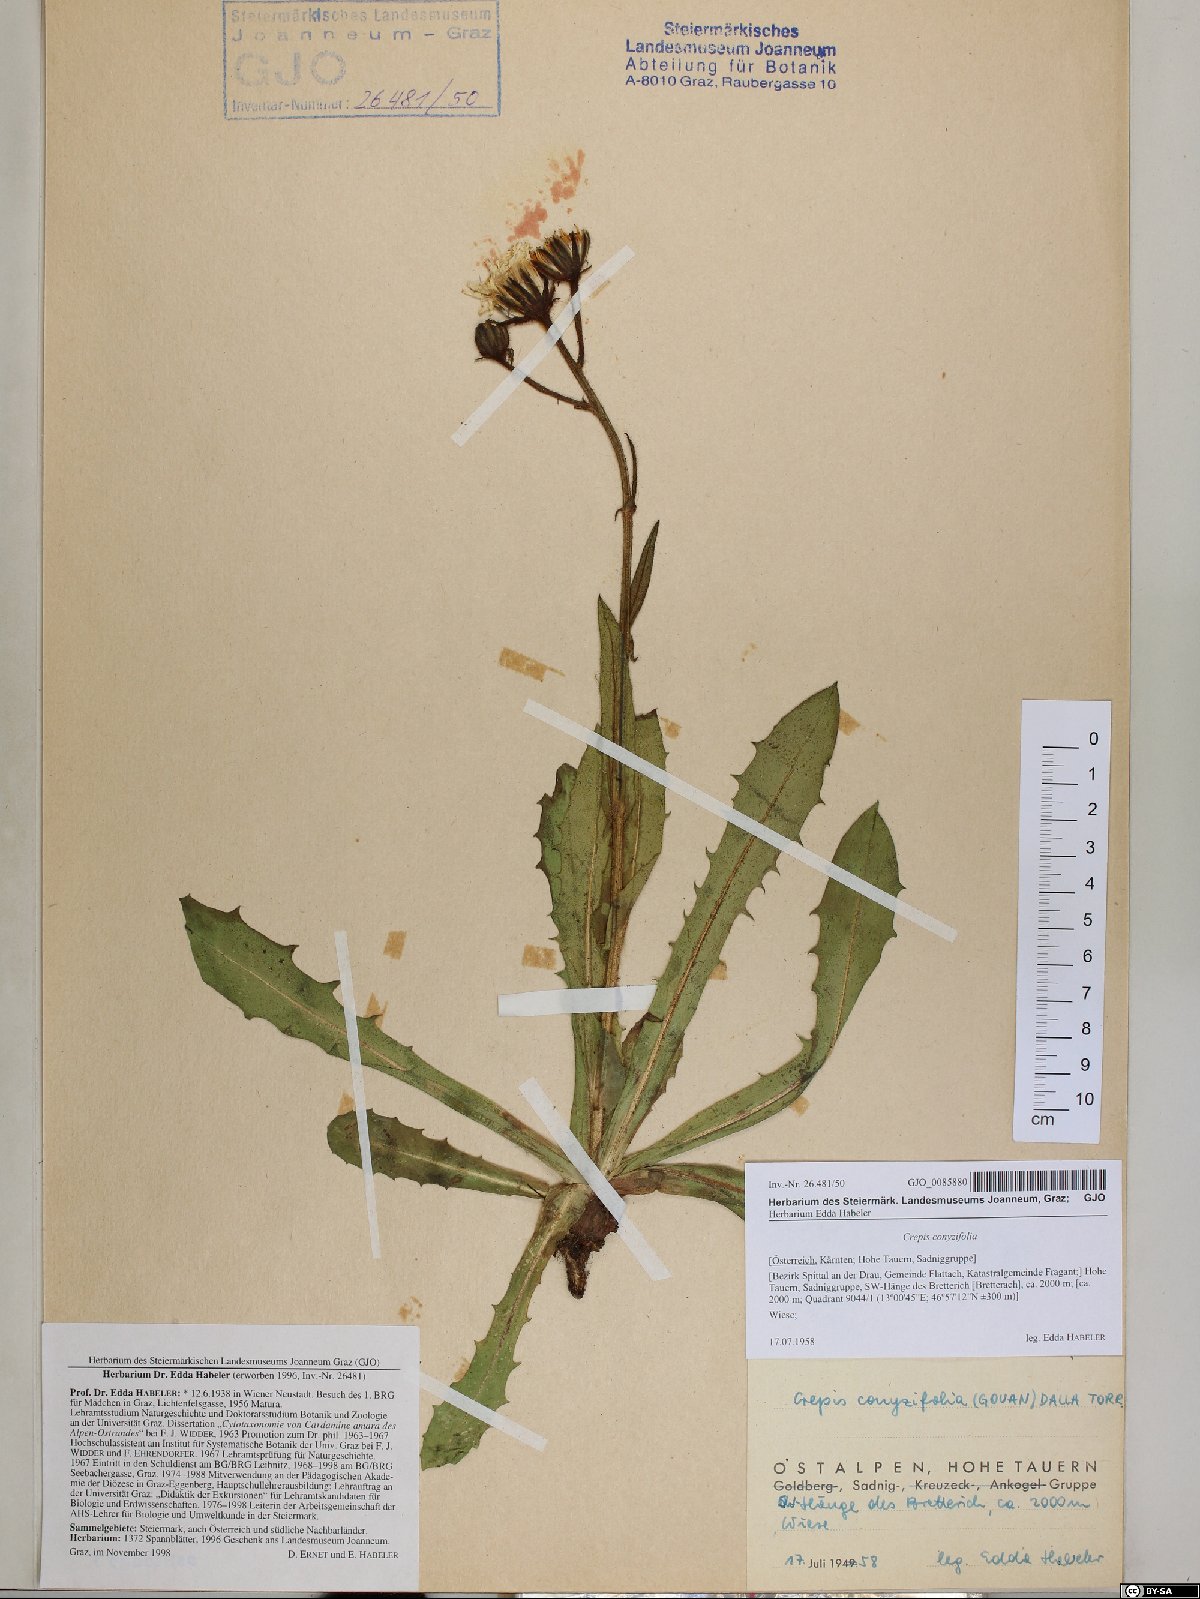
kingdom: Plantae
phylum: Tracheophyta
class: Magnoliopsida
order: Asterales
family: Asteraceae
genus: Crepis
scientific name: Crepis blattarioides
